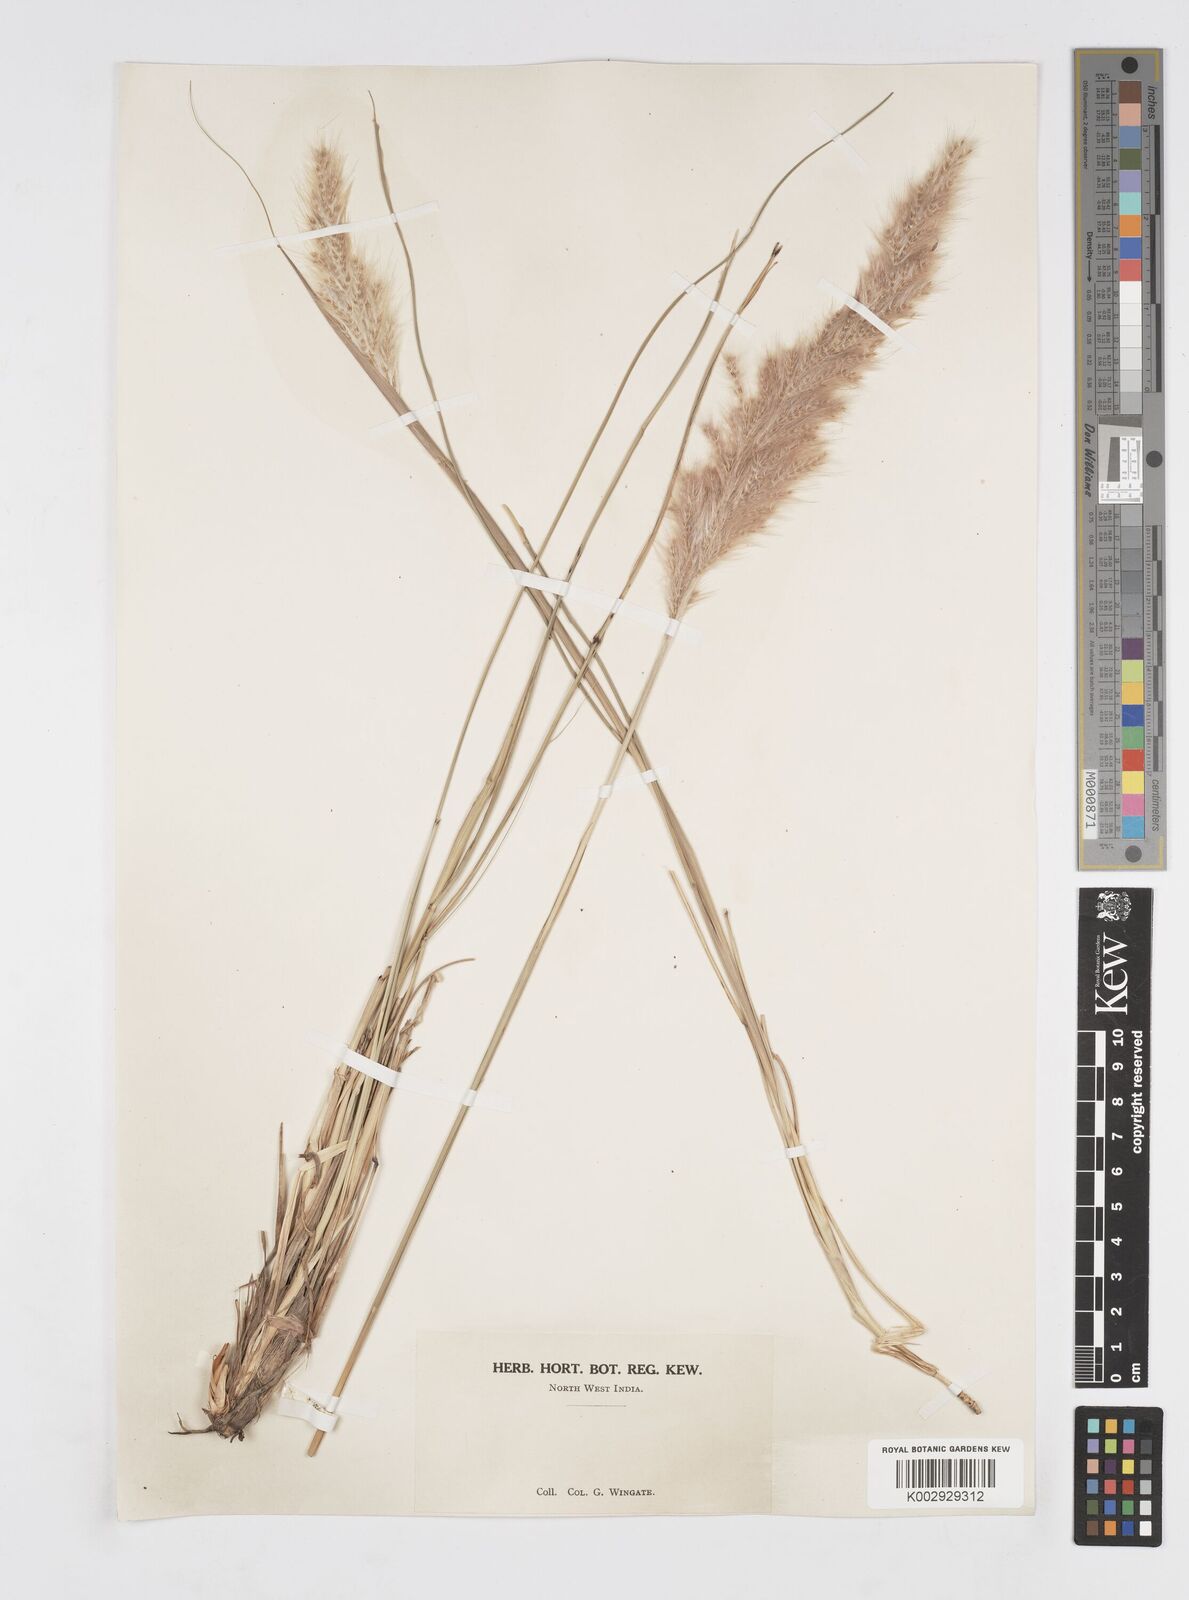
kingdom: Plantae
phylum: Tracheophyta
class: Liliopsida
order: Poales
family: Poaceae
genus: Tripidium
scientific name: Tripidium rufipilum
